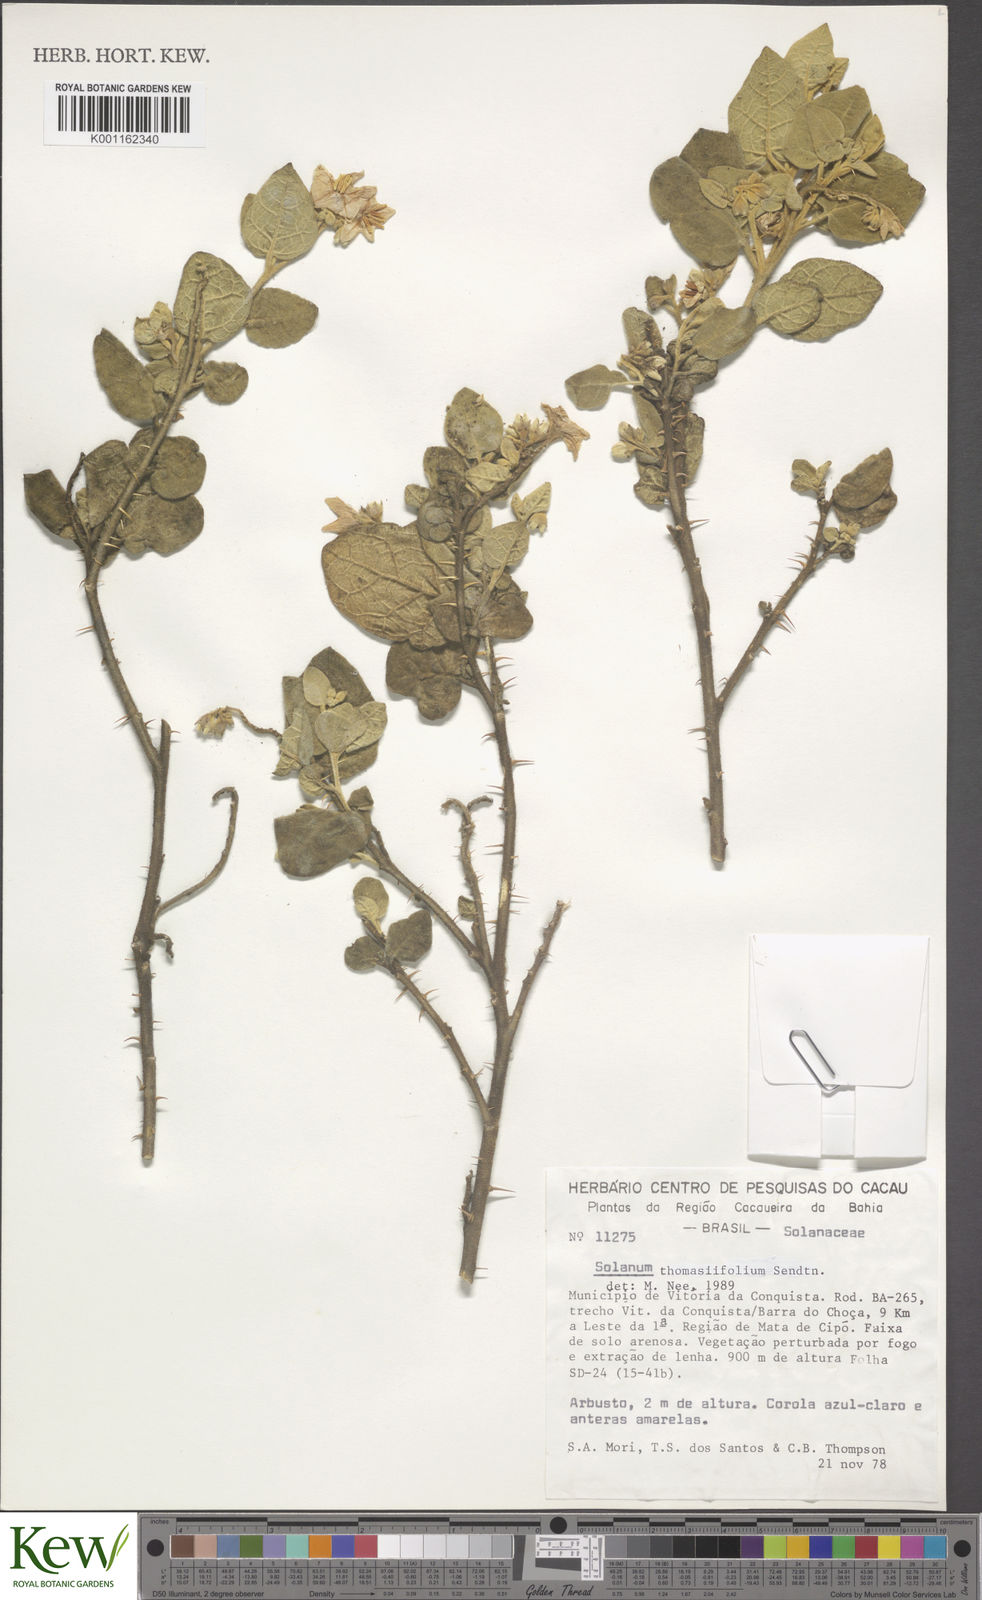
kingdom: Plantae
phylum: Tracheophyta
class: Magnoliopsida
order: Solanales
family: Solanaceae
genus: Solanum
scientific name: Solanum thomasiifolium
